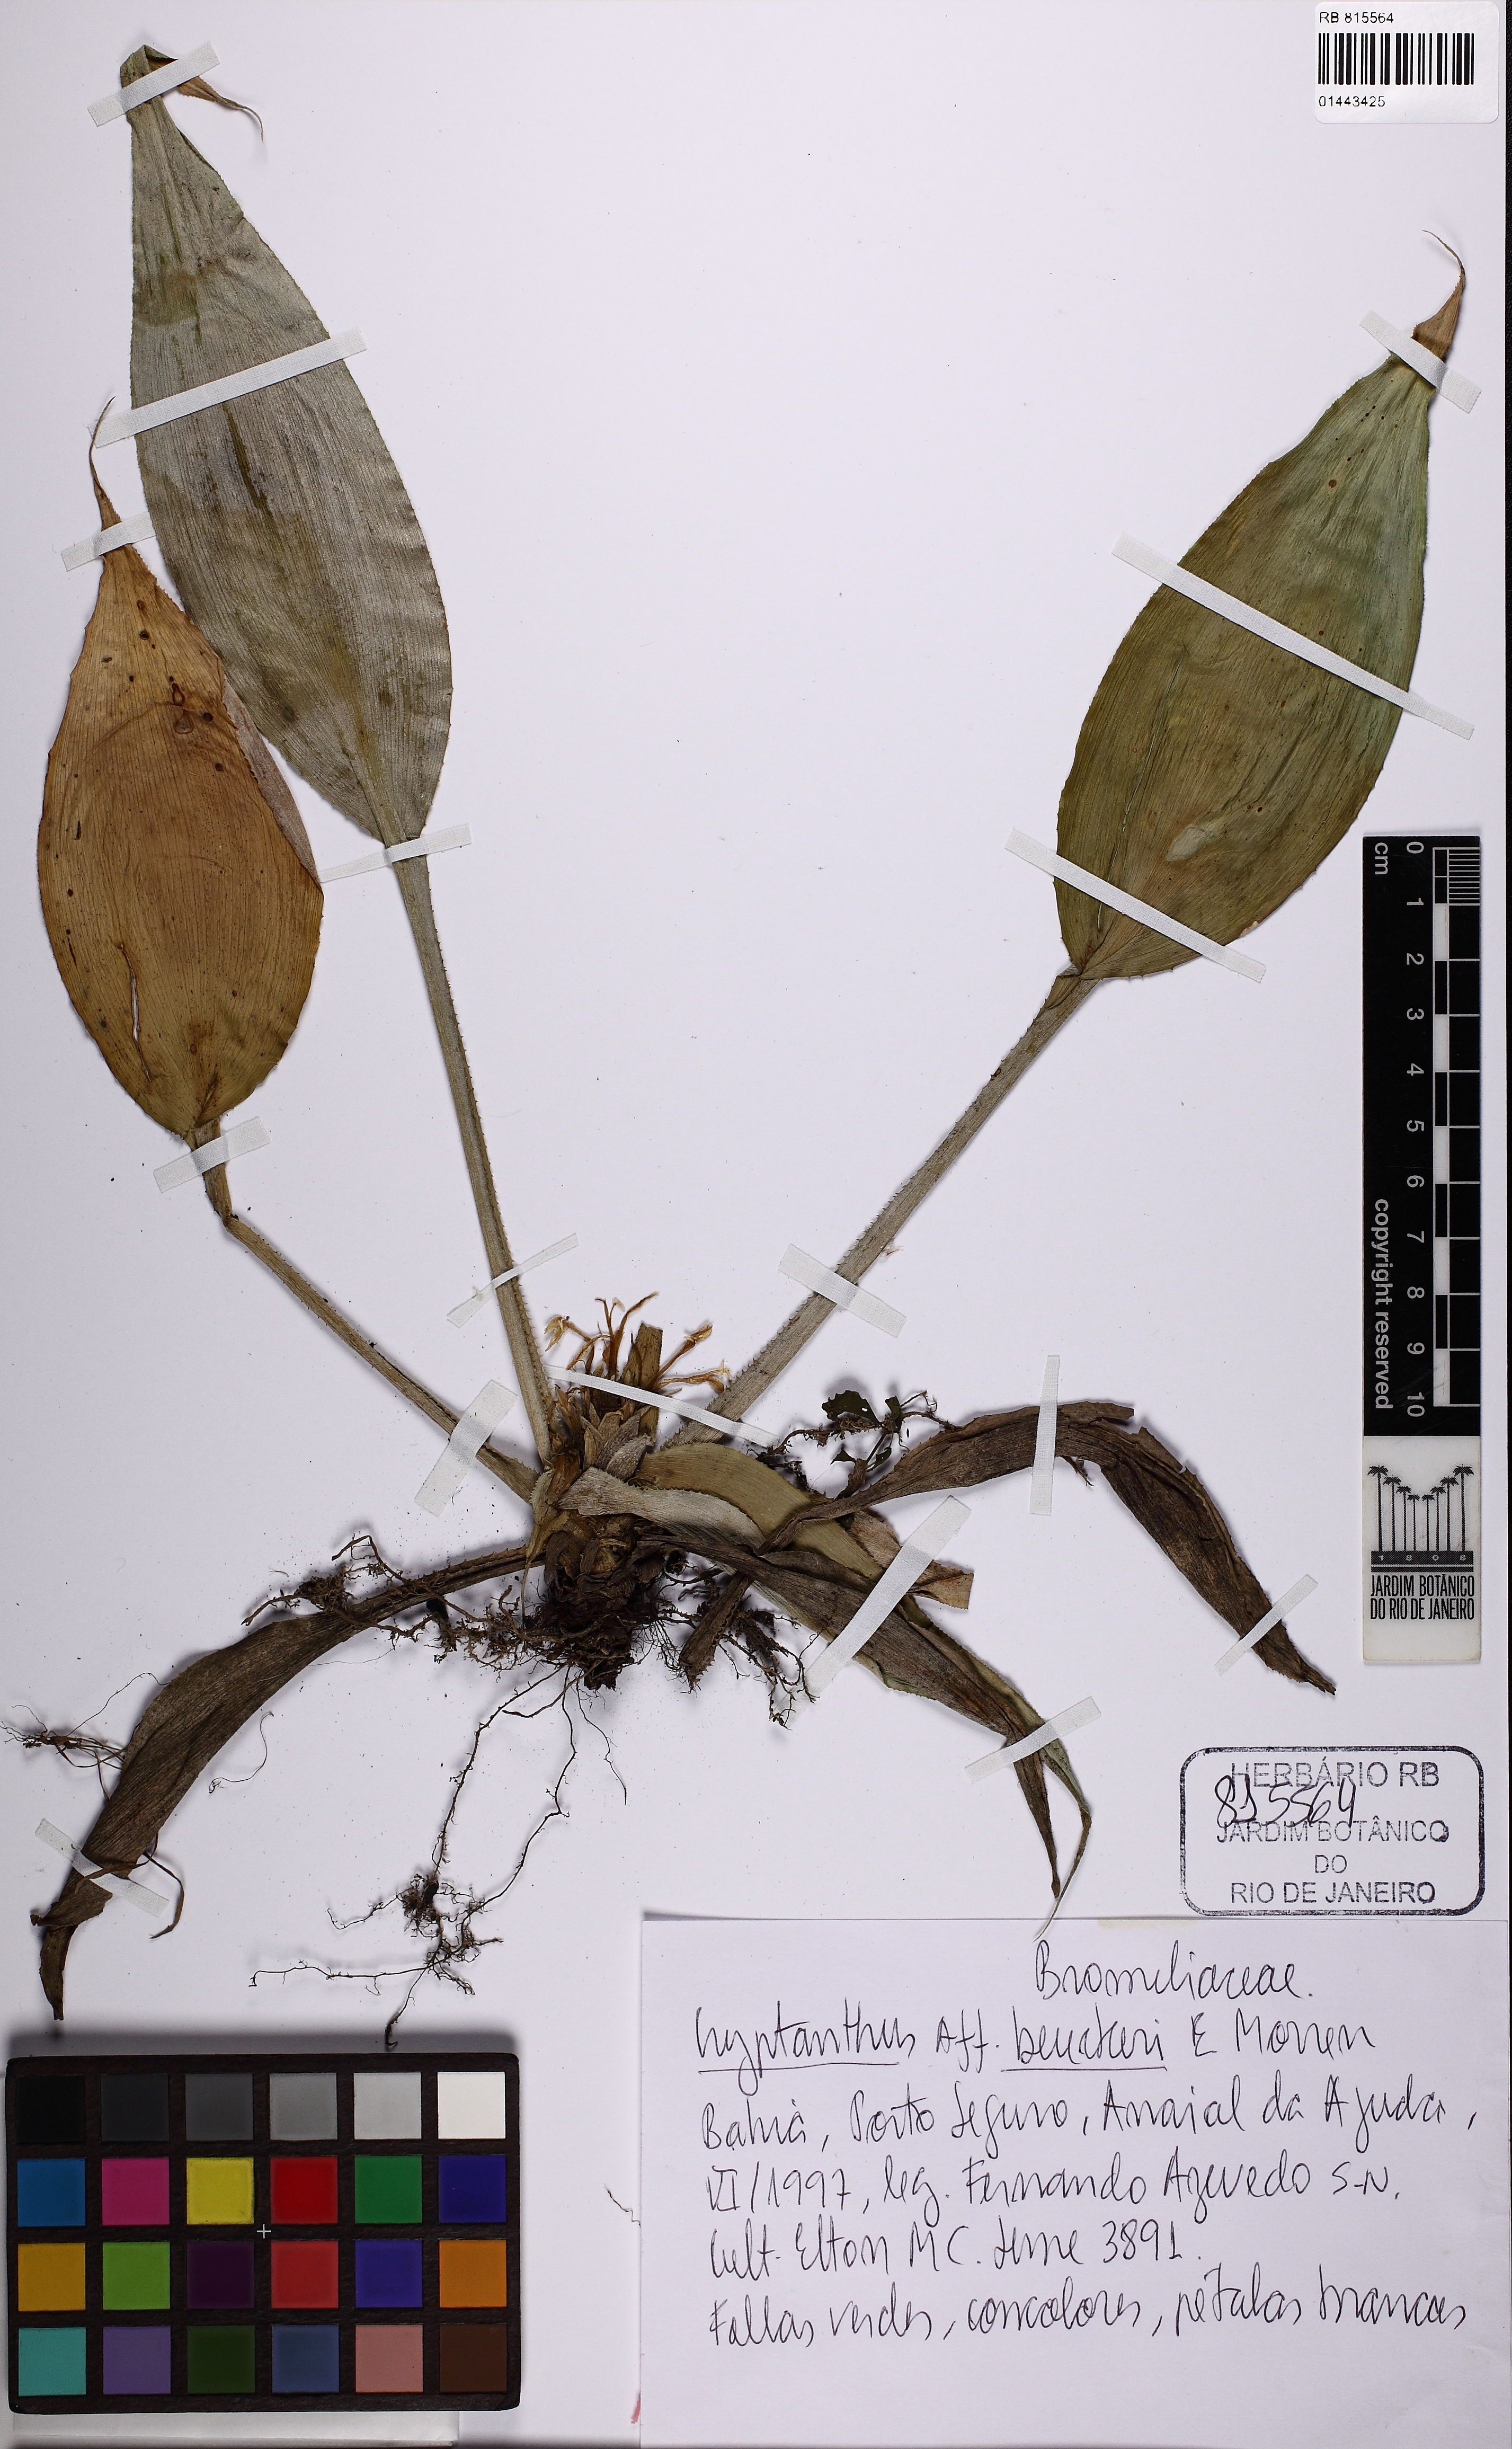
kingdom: Plantae
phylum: Tracheophyta
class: Liliopsida
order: Poales
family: Bromeliaceae
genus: Cryptanthus
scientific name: Cryptanthus beuckeri
